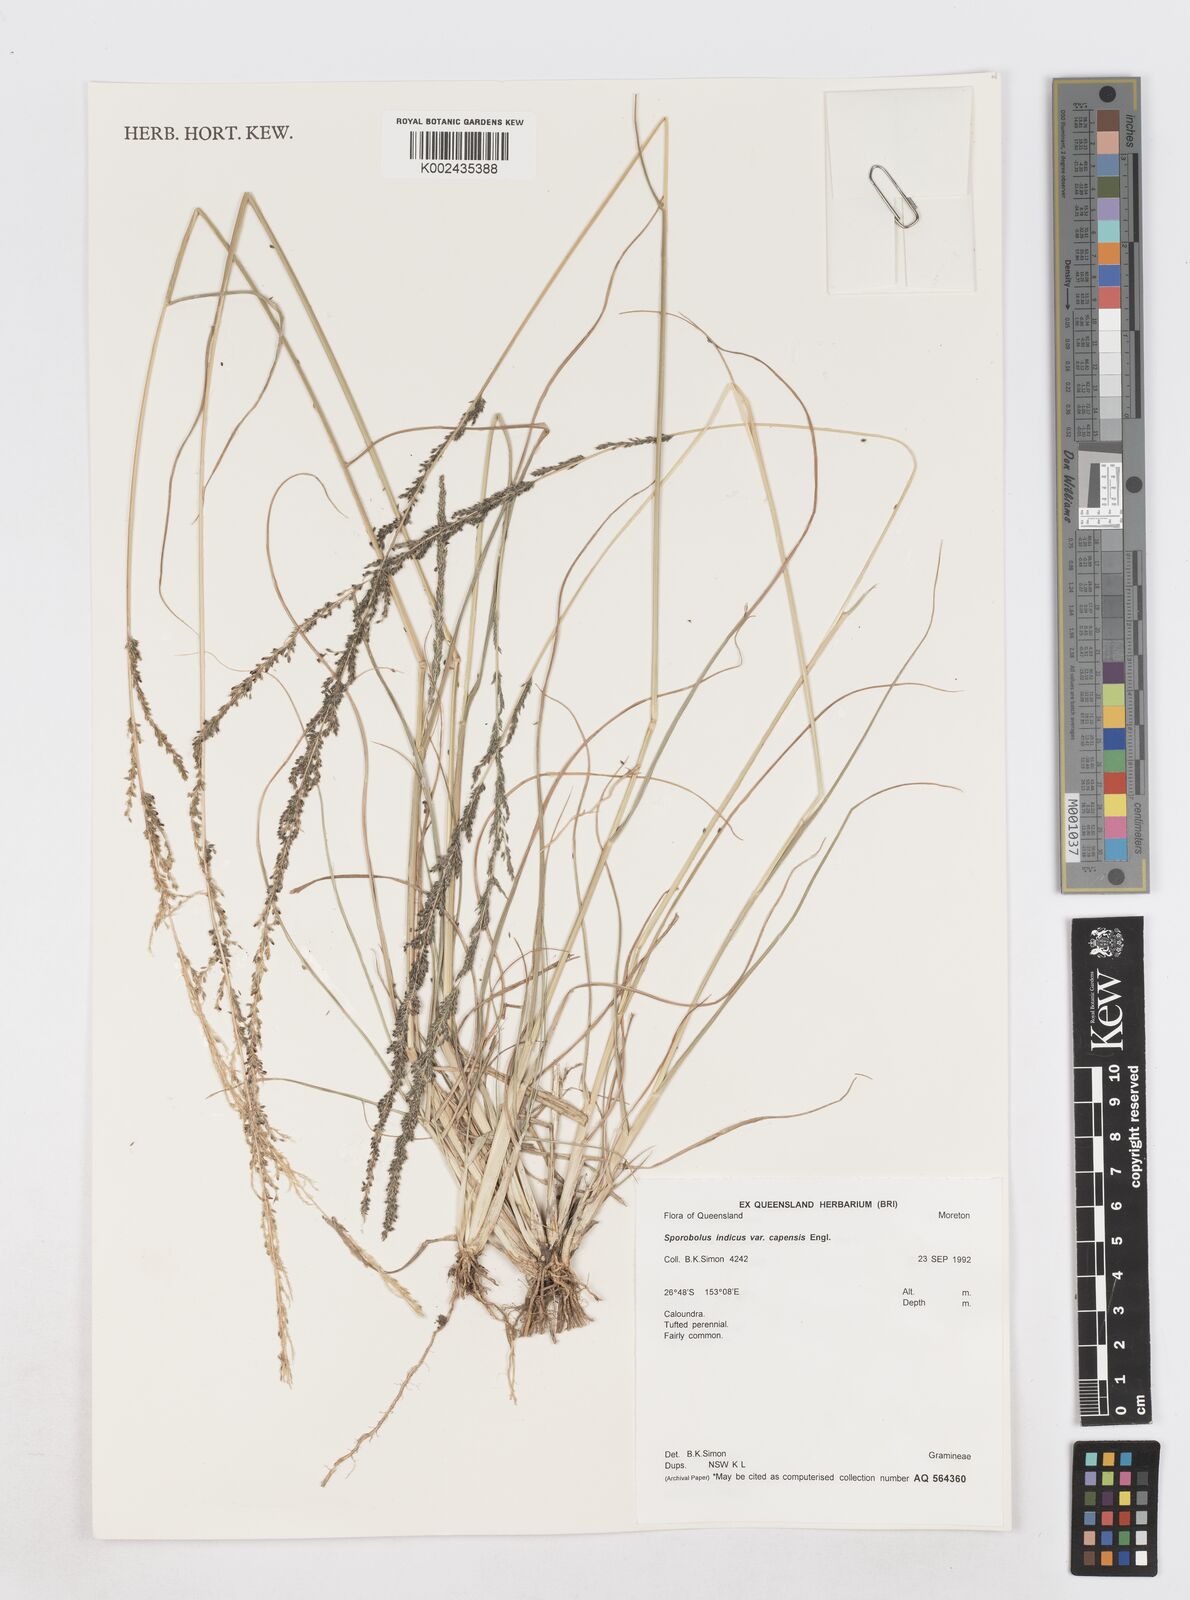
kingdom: Plantae
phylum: Tracheophyta
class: Liliopsida
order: Poales
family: Poaceae
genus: Sporobolus
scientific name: Sporobolus africanus
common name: African dropseed
